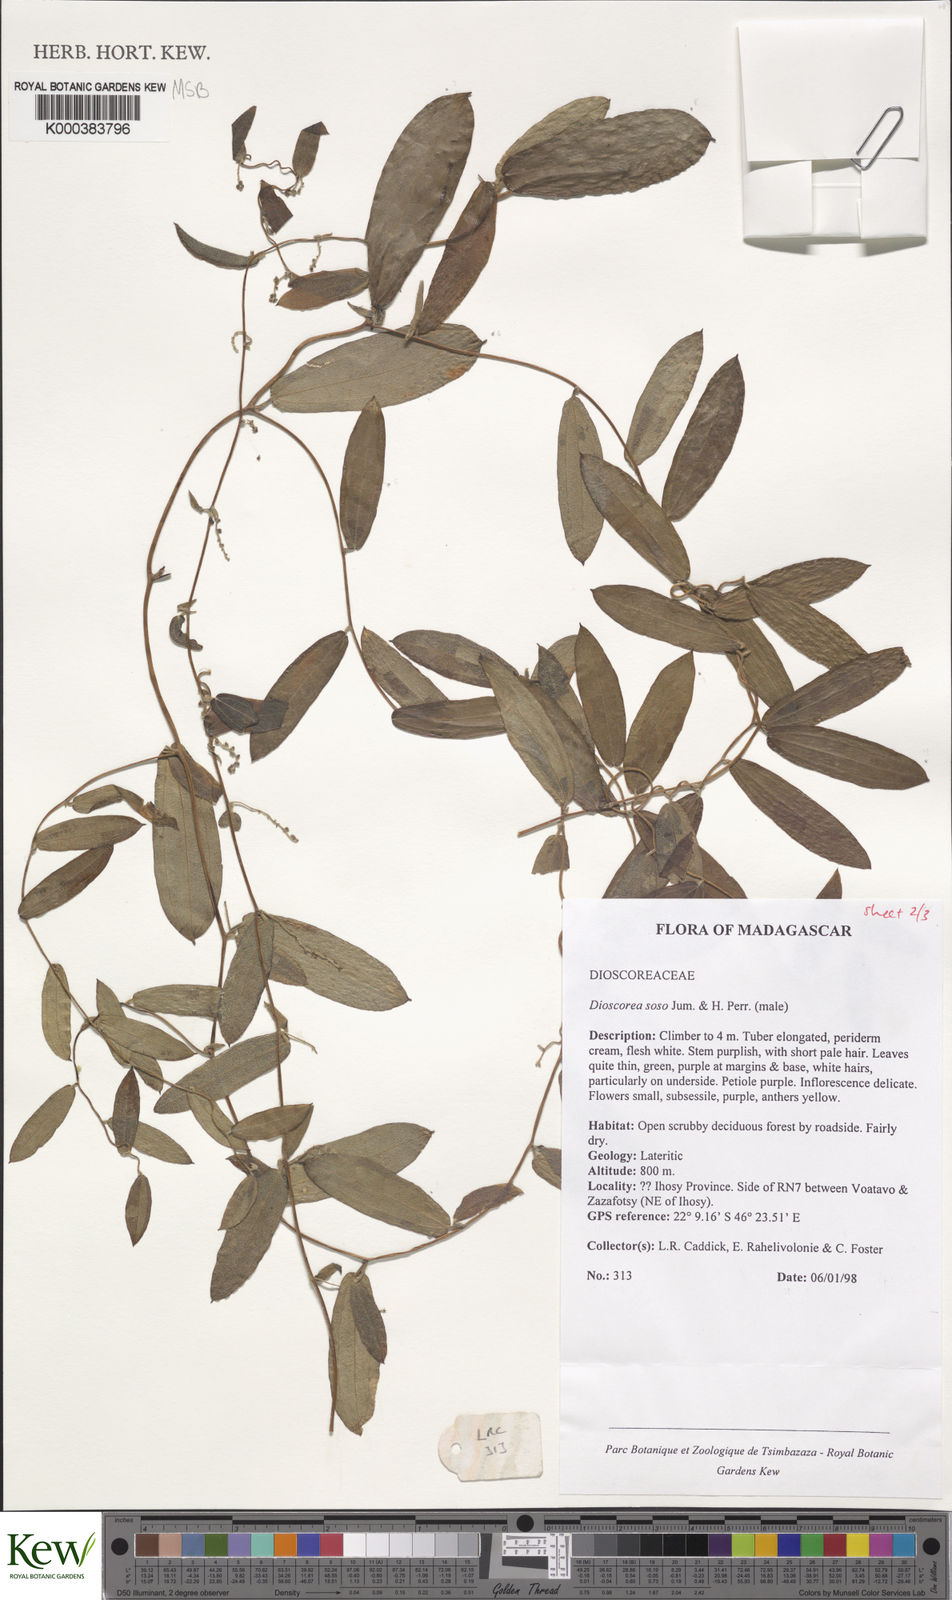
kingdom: Plantae
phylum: Tracheophyta
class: Liliopsida
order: Dioscoreales
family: Dioscoreaceae
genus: Dioscorea
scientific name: Dioscorea
